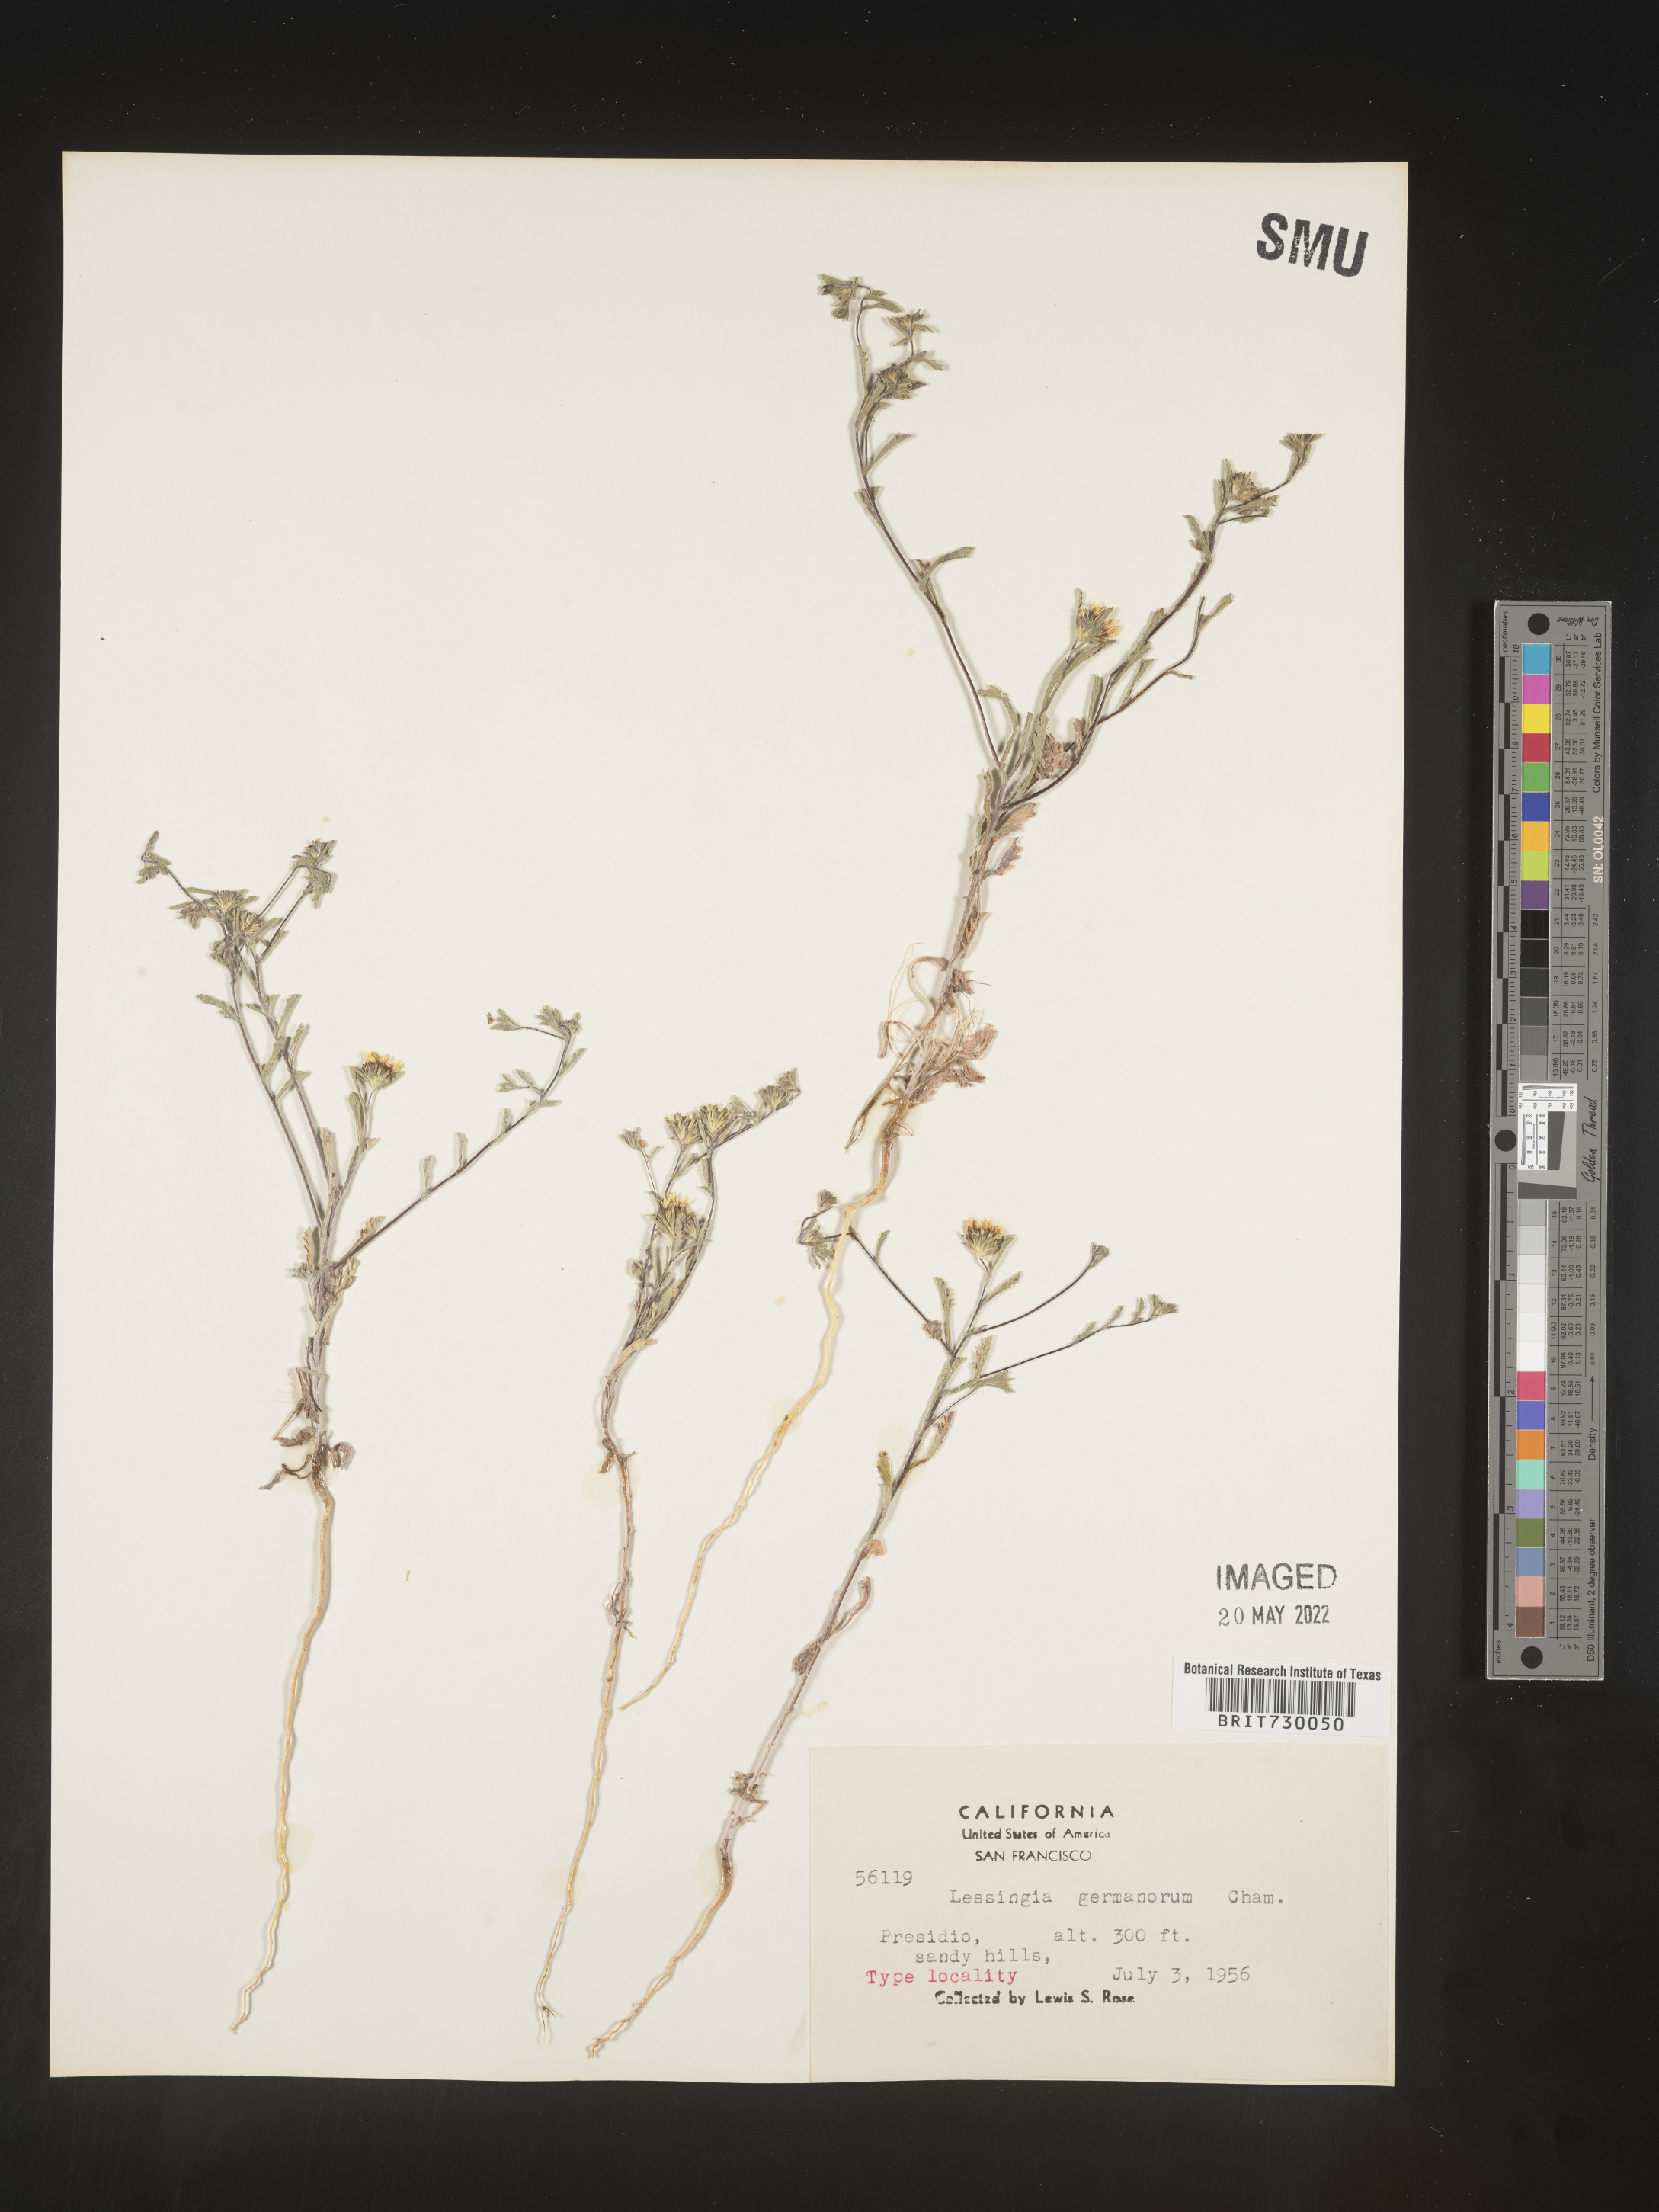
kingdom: Plantae
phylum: Tracheophyta
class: Magnoliopsida
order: Asterales
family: Asteraceae
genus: Lessingia
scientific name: Lessingia
